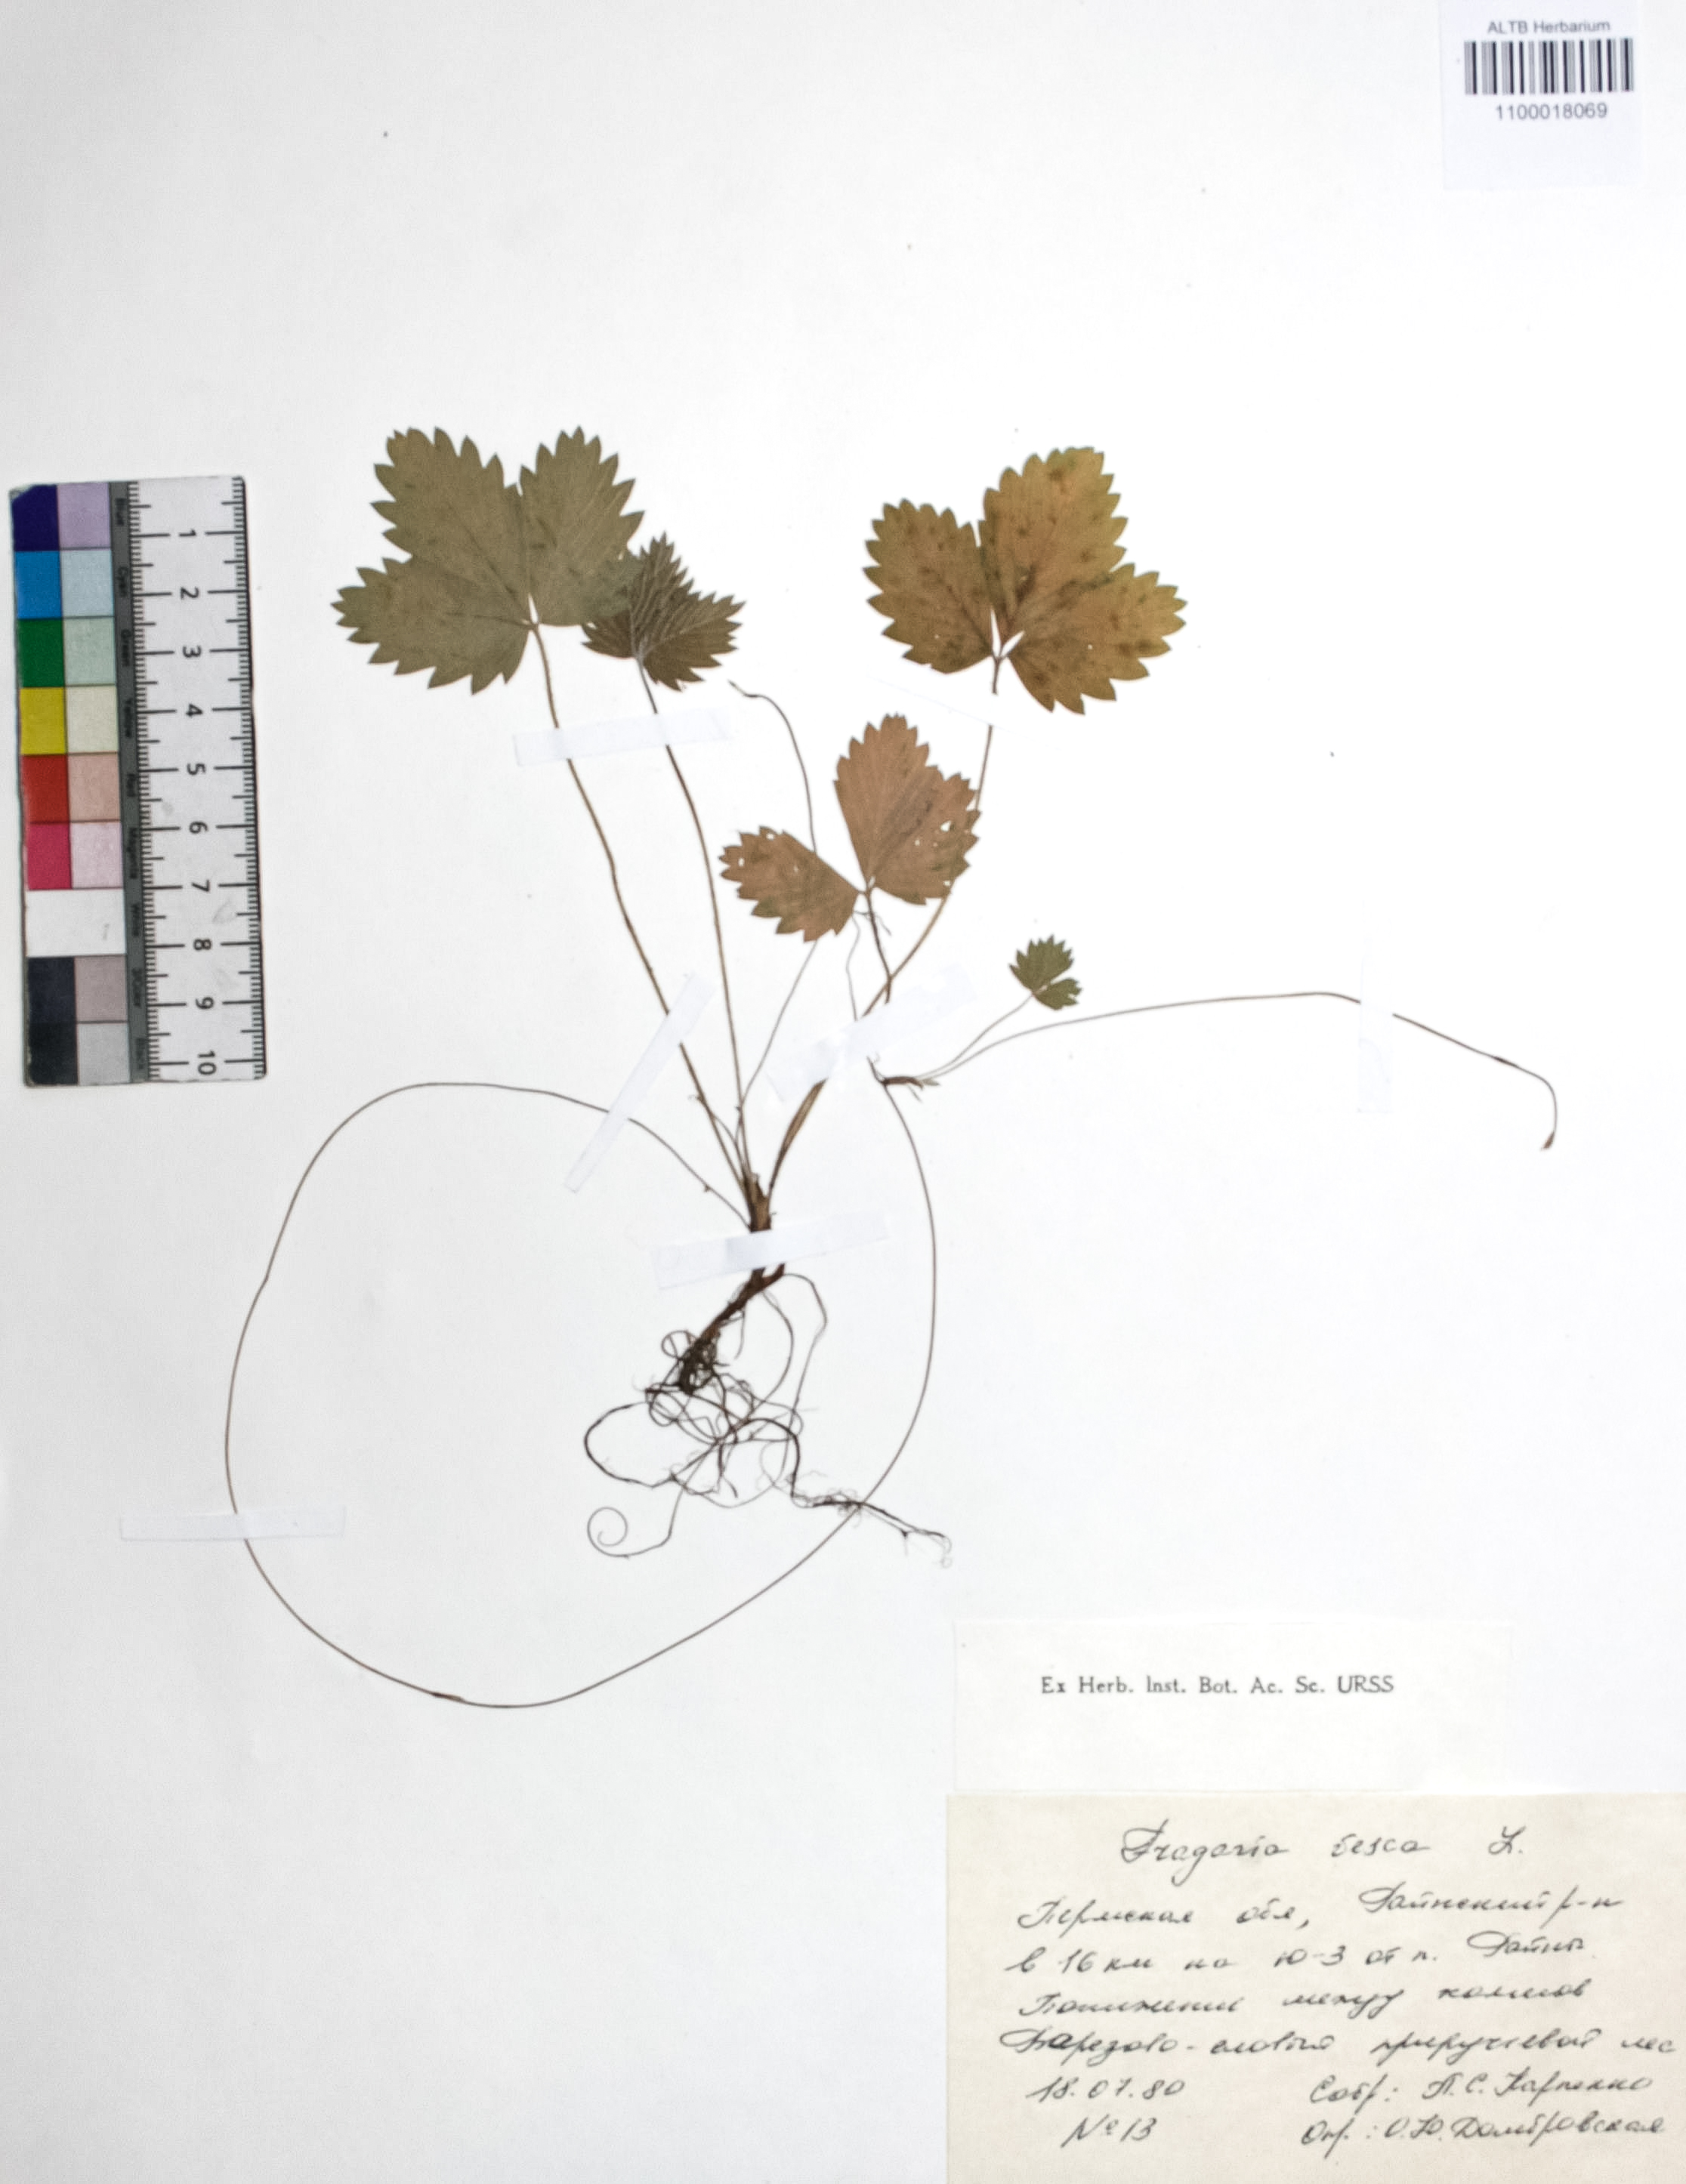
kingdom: Plantae
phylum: Tracheophyta
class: Magnoliopsida
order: Rosales
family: Rosaceae
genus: Fragaria
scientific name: Fragaria vesca
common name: Wild strawberry
